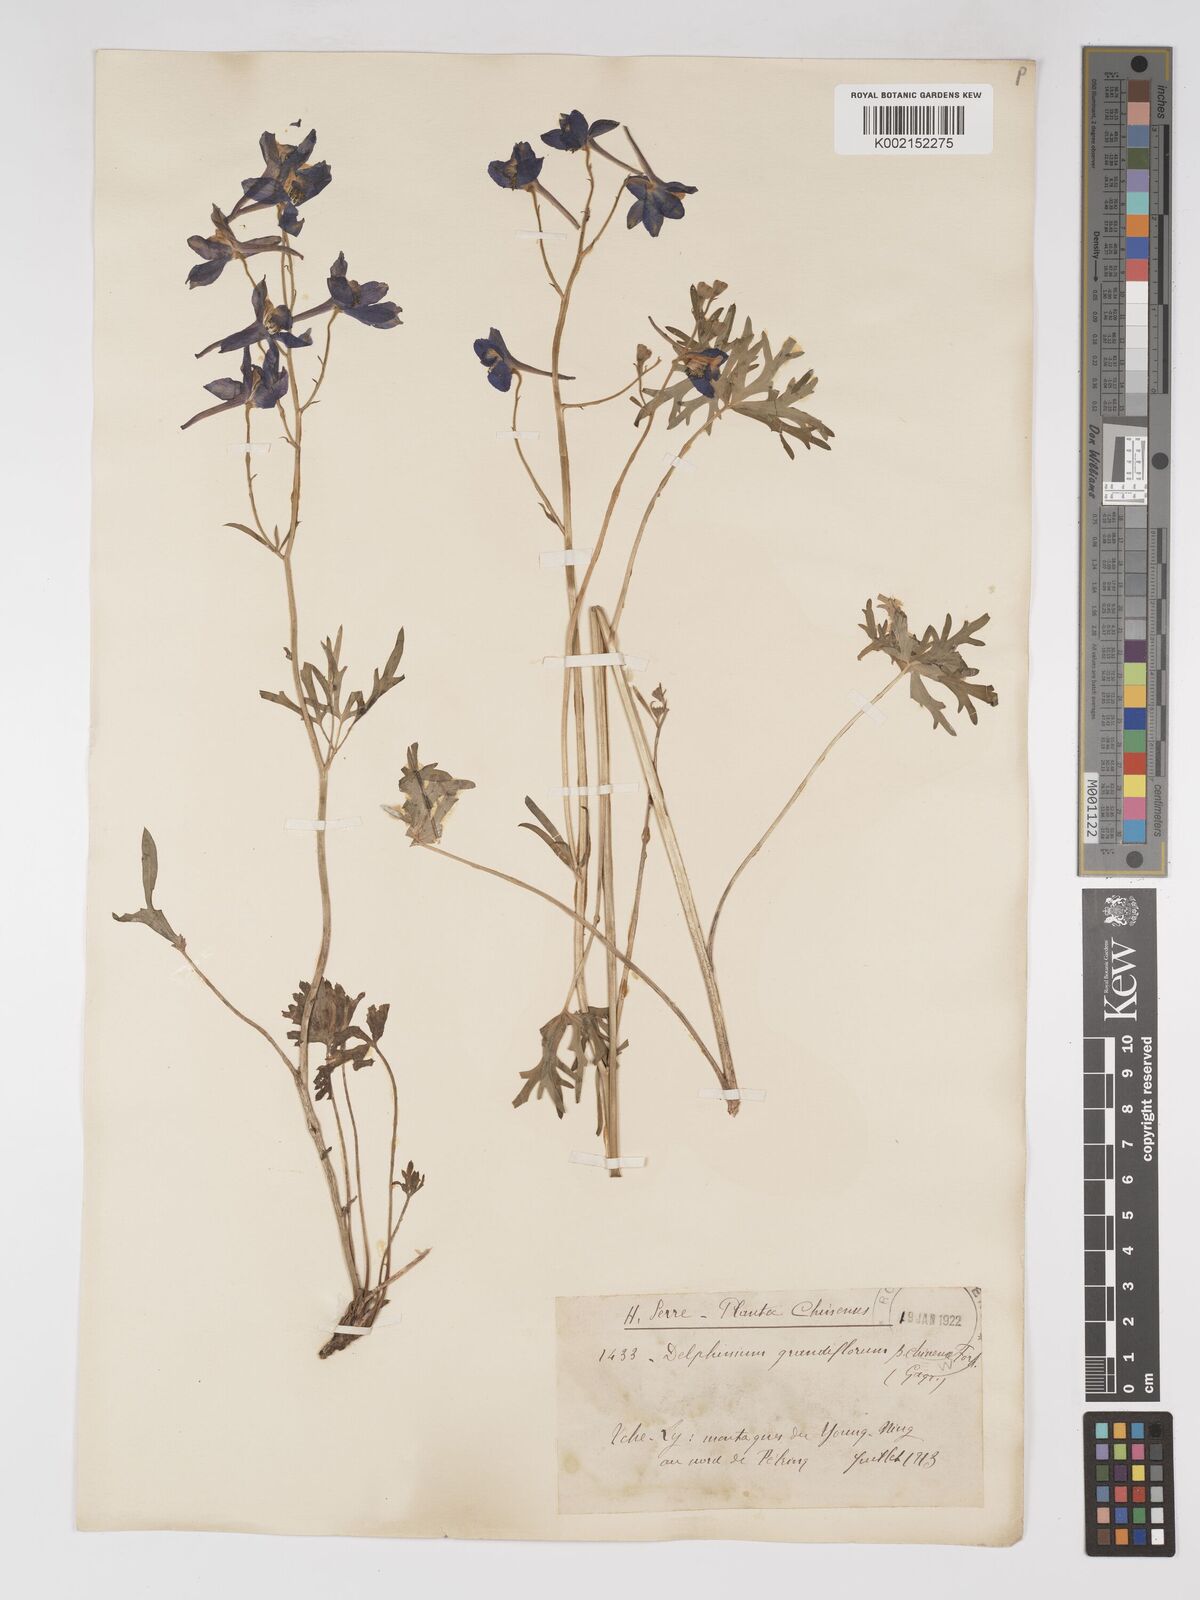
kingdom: Plantae
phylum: Tracheophyta
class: Magnoliopsida
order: Ranunculales
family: Ranunculaceae
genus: Delphinium
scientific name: Delphinium grandiflorum
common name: Siberian larkspur
